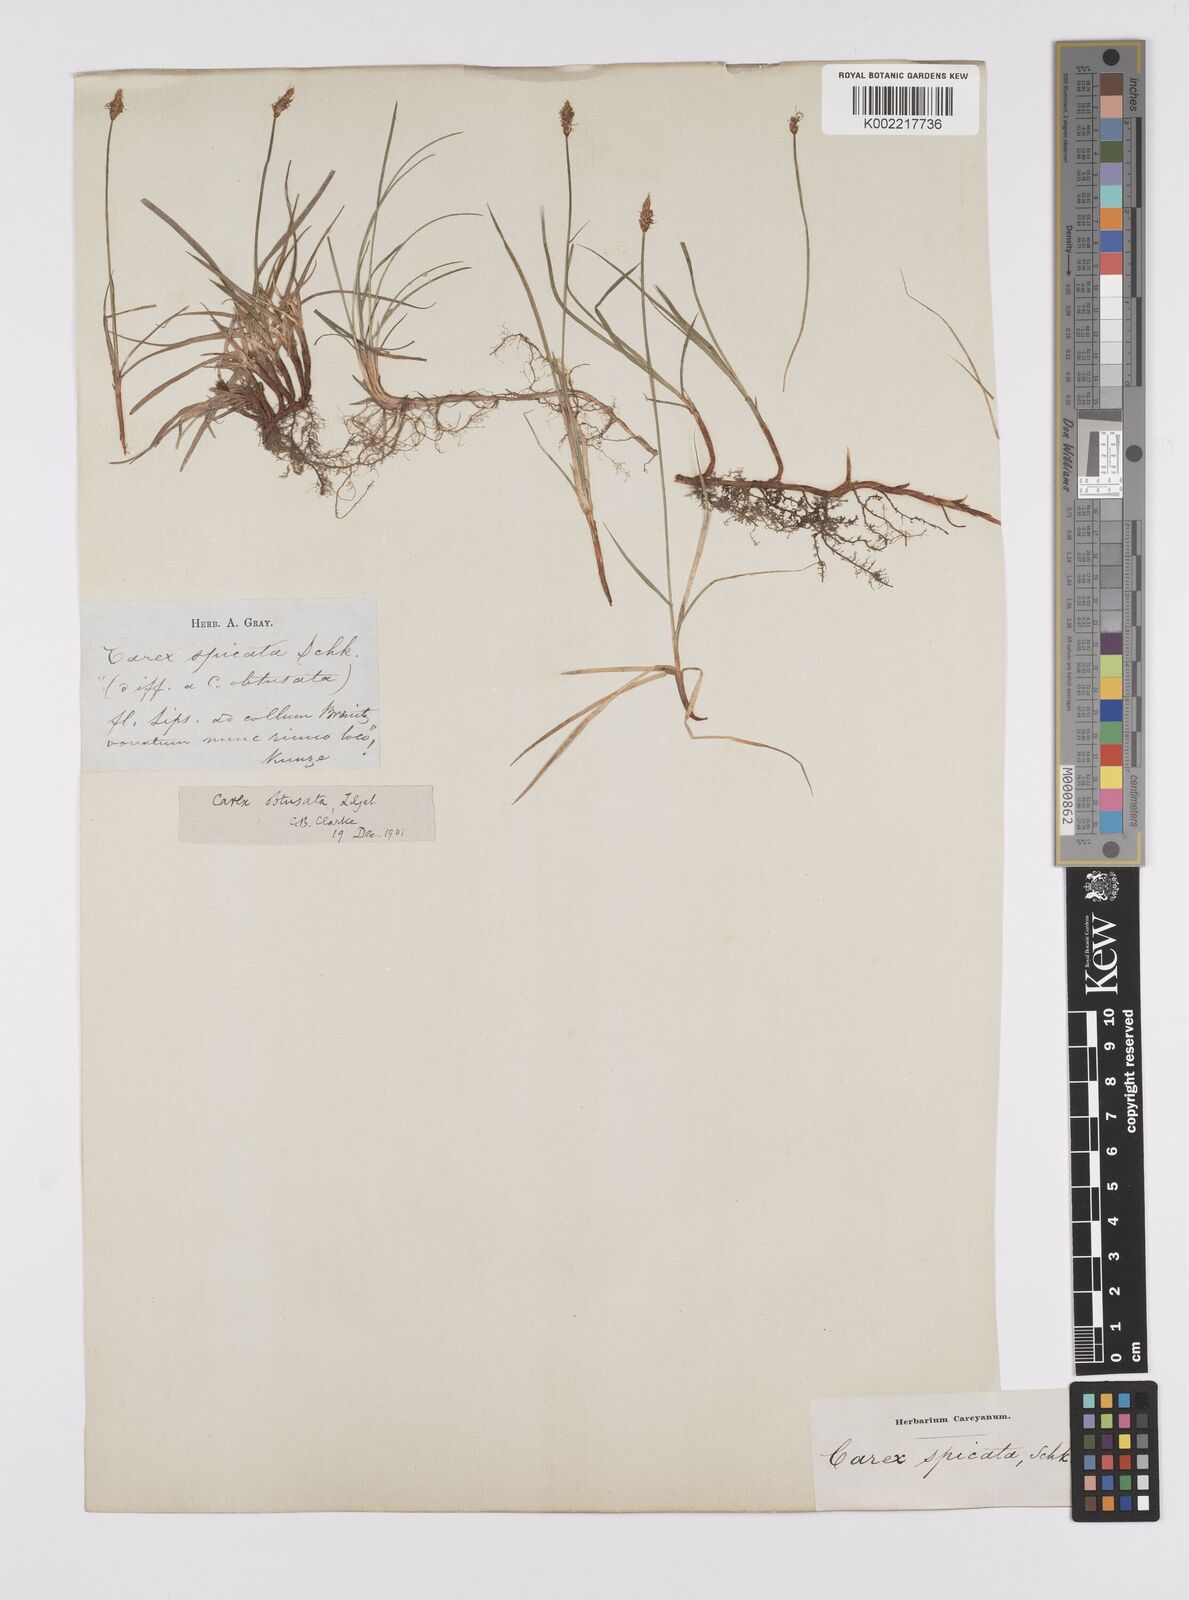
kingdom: Plantae
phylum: Tracheophyta
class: Liliopsida
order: Poales
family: Cyperaceae
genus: Carex
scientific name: Carex obtusata
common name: Blunt sedge
